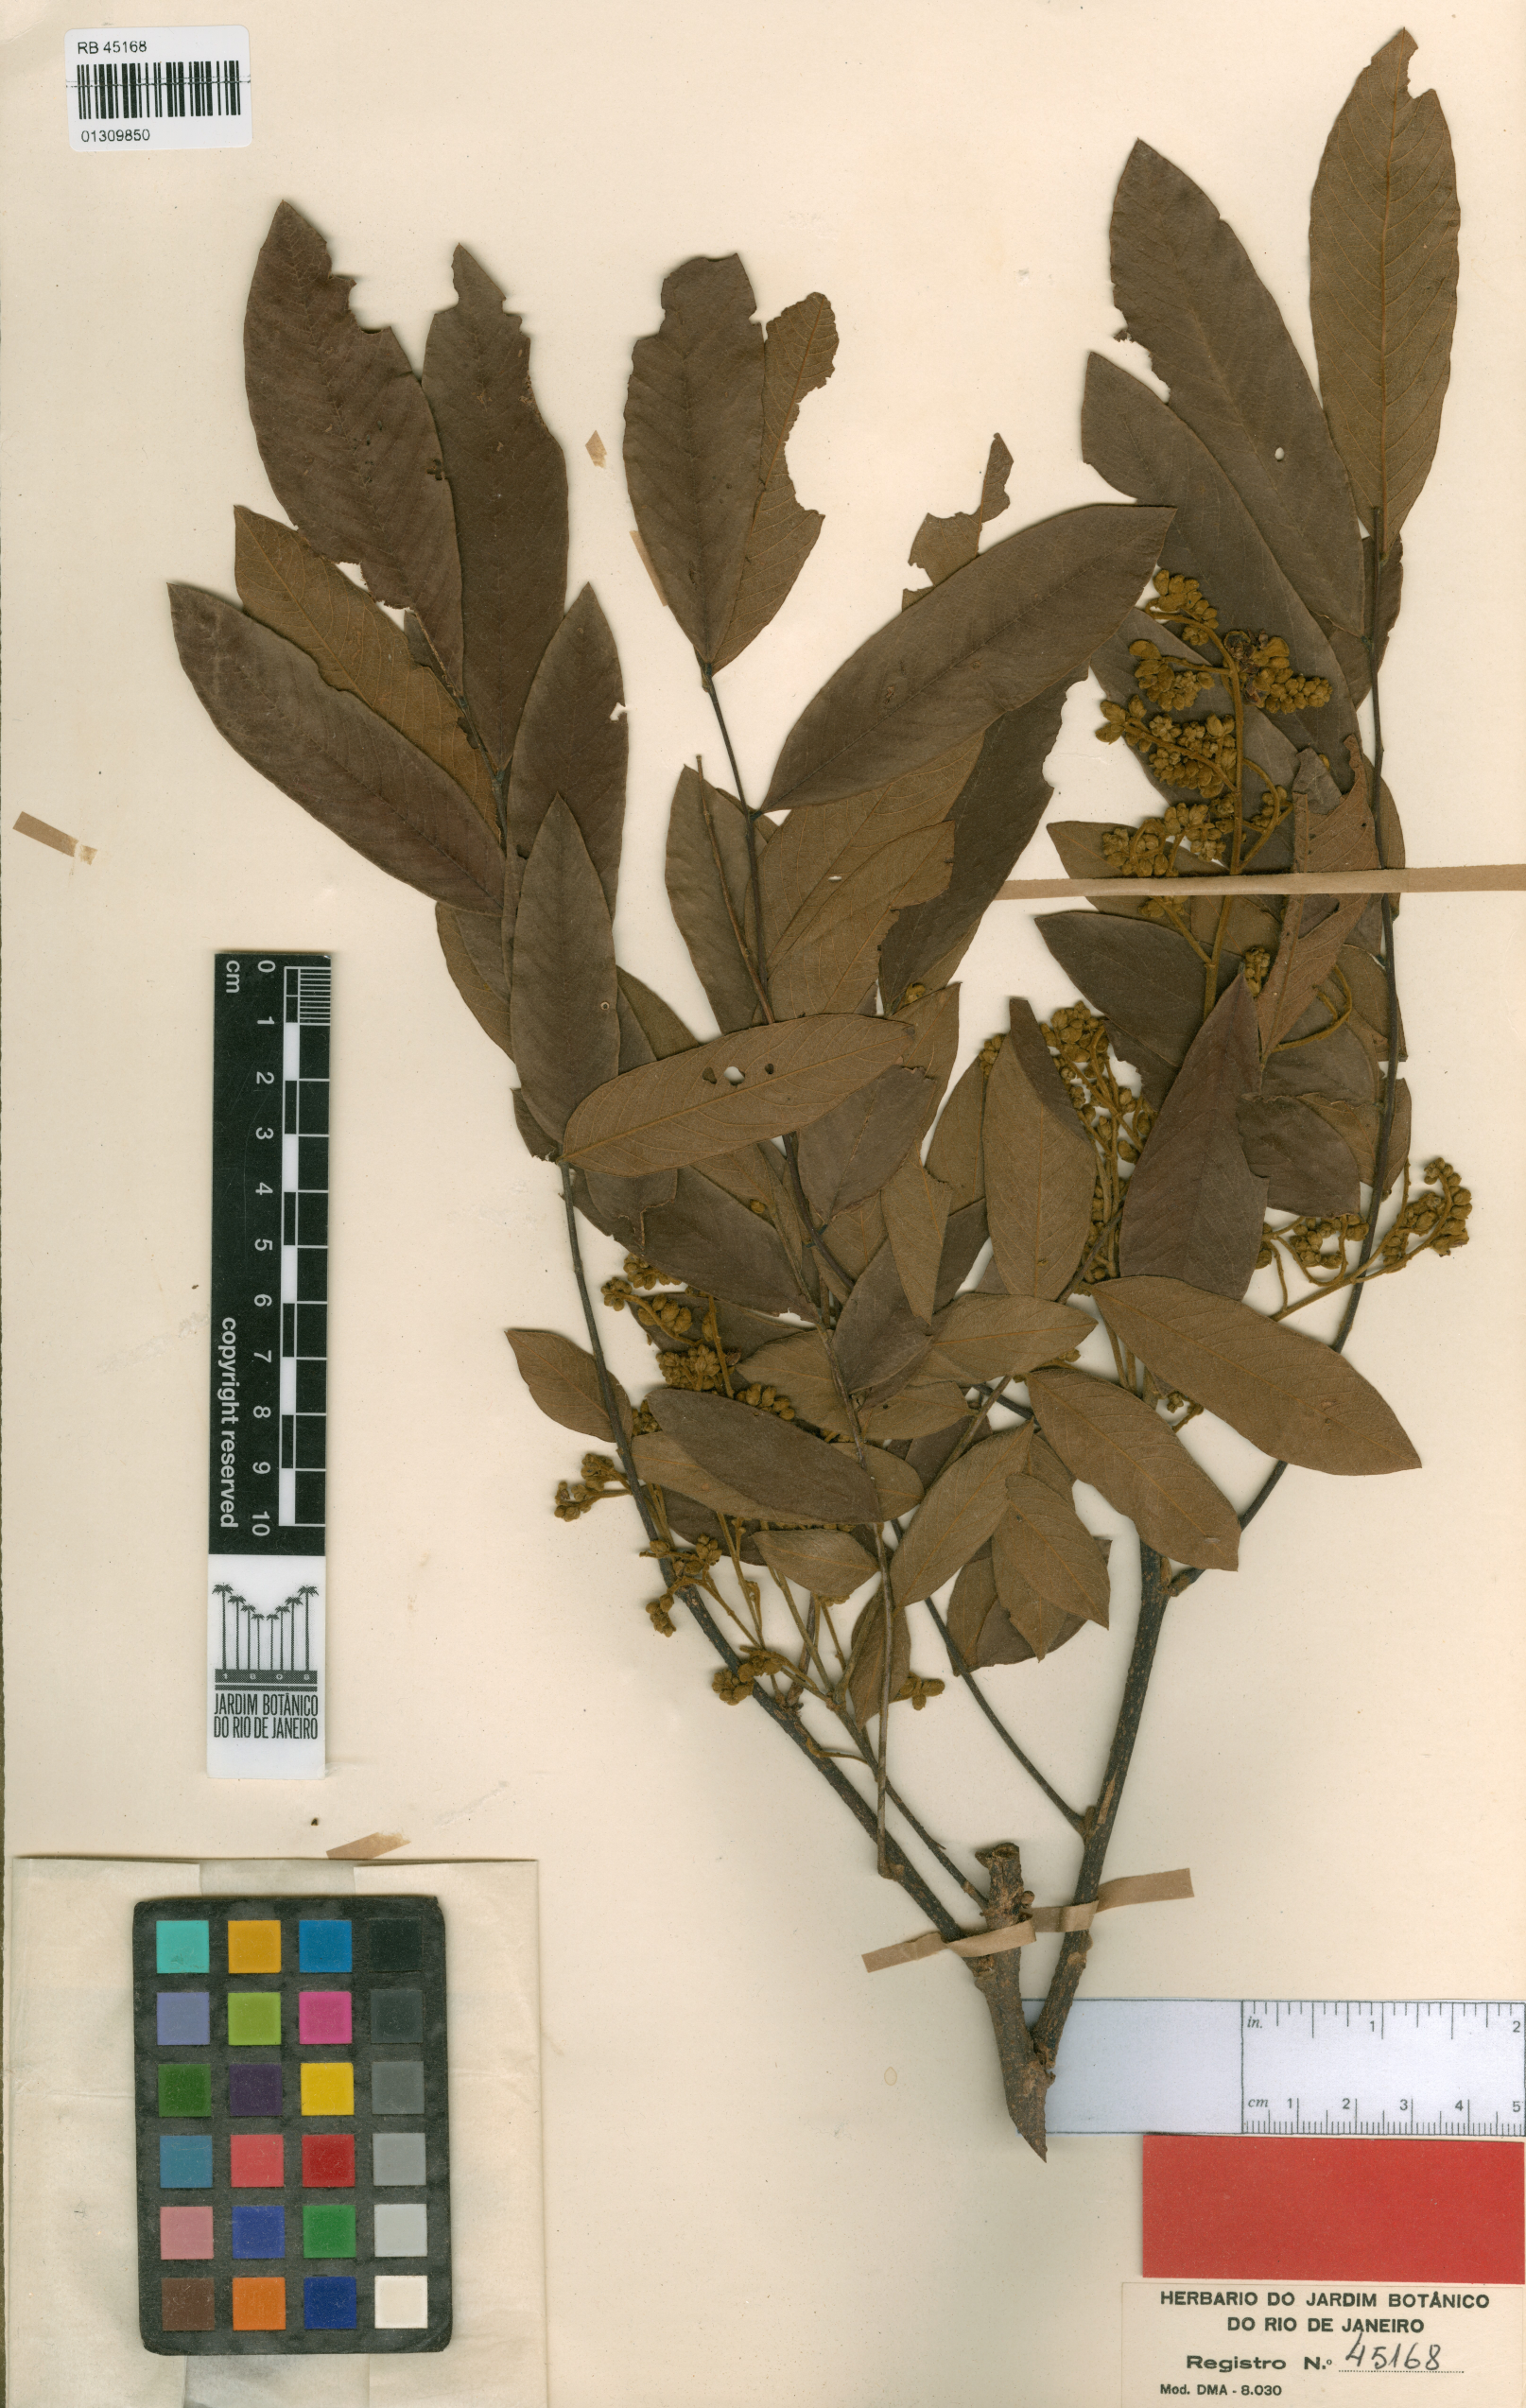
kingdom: Plantae
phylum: Tracheophyta
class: Magnoliopsida
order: Fabales
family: Fabaceae
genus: Machaerium
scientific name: Machaerium androvillosum
